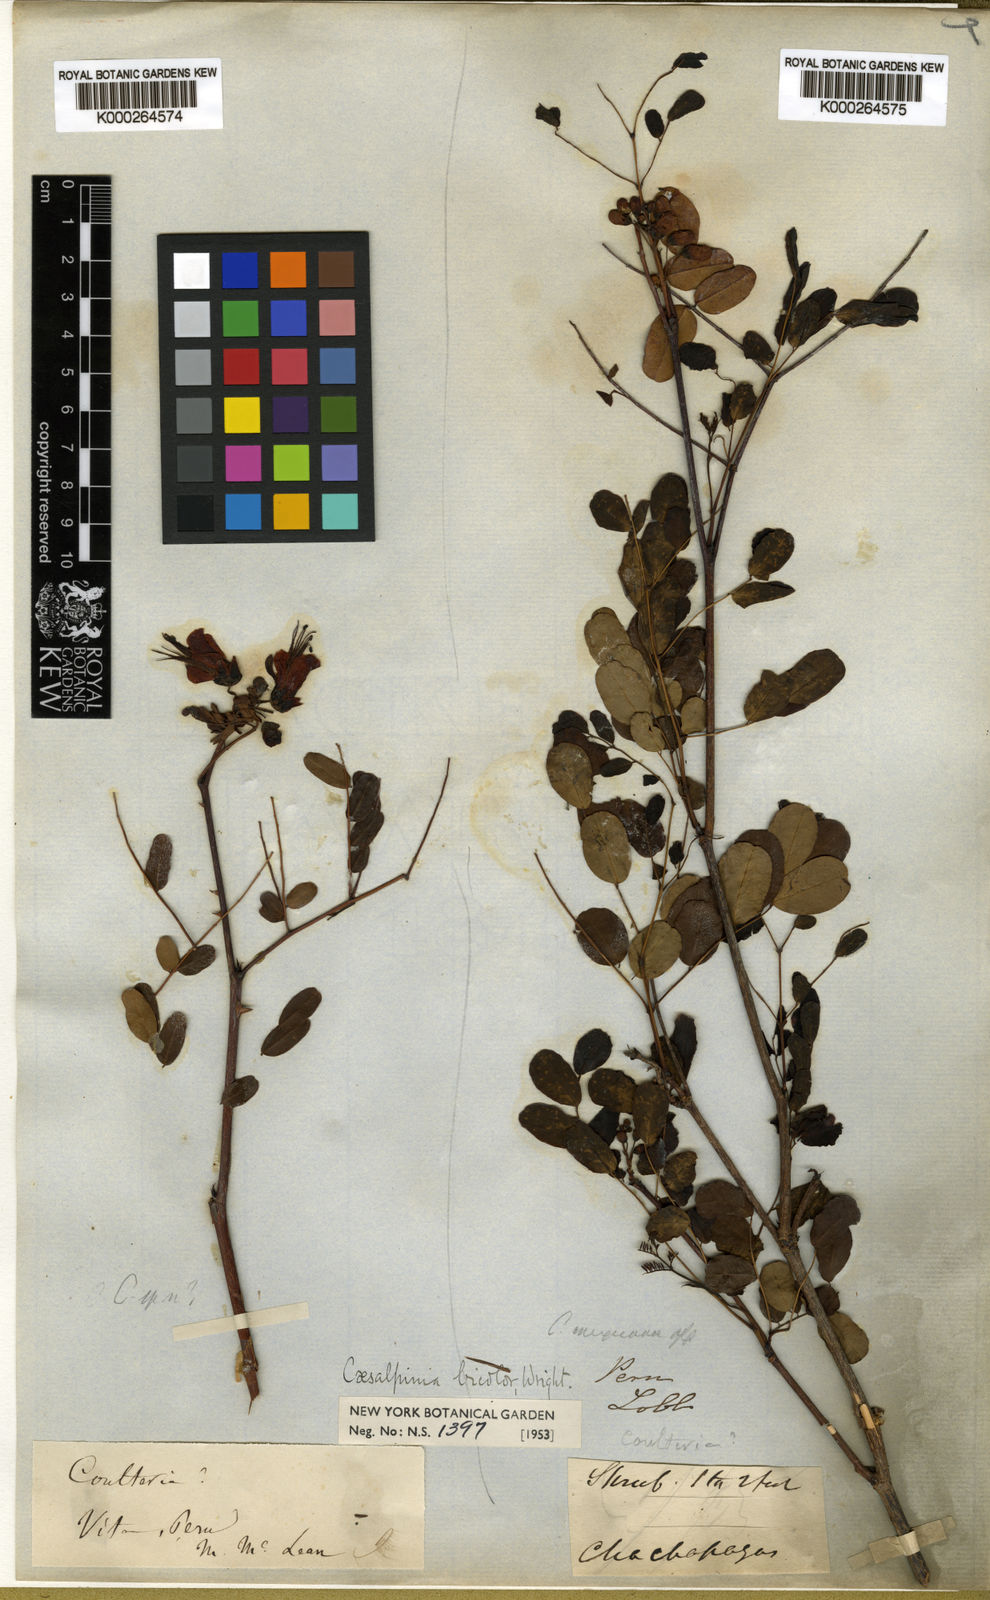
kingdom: Plantae
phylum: Tracheophyta
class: Magnoliopsida
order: Fabales
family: Fabaceae
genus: Caesalpinia
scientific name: Caesalpinia cassioides
